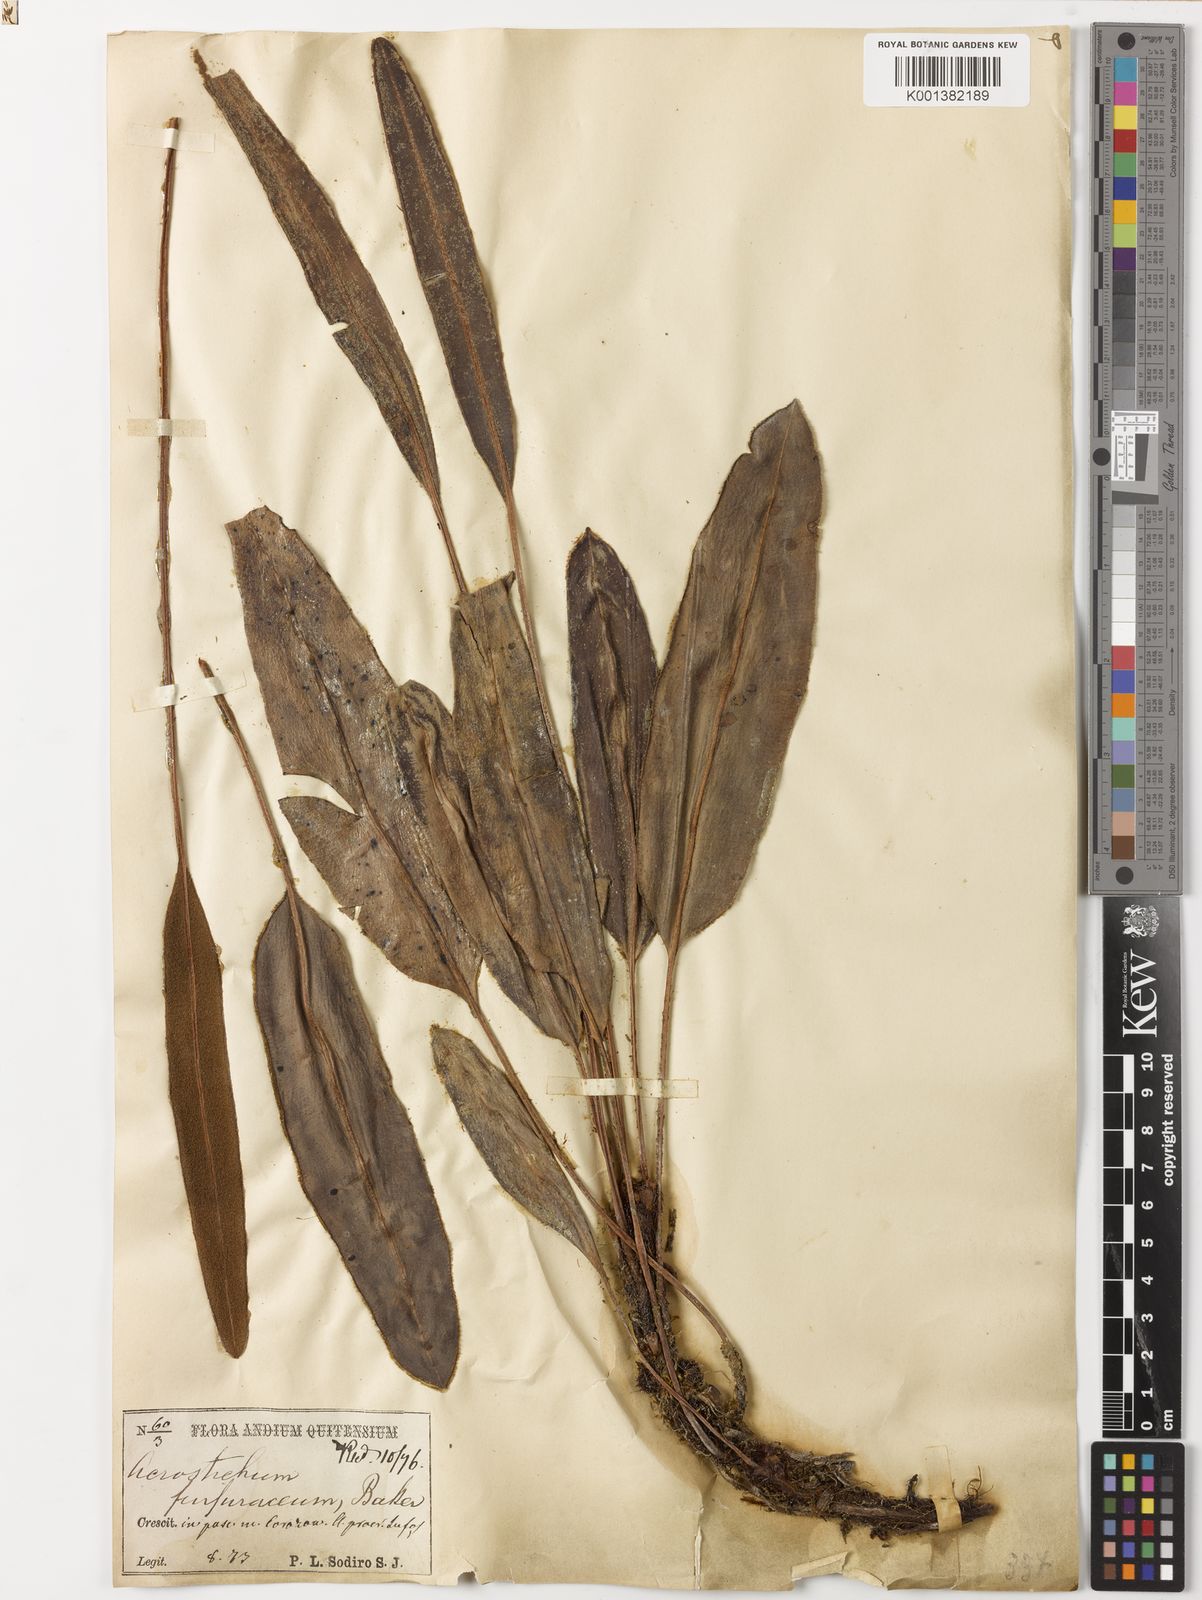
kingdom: Plantae
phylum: Tracheophyta
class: Polypodiopsida
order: Polypodiales
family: Dryopteridaceae
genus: Elaphoglossum
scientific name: Elaphoglossum
